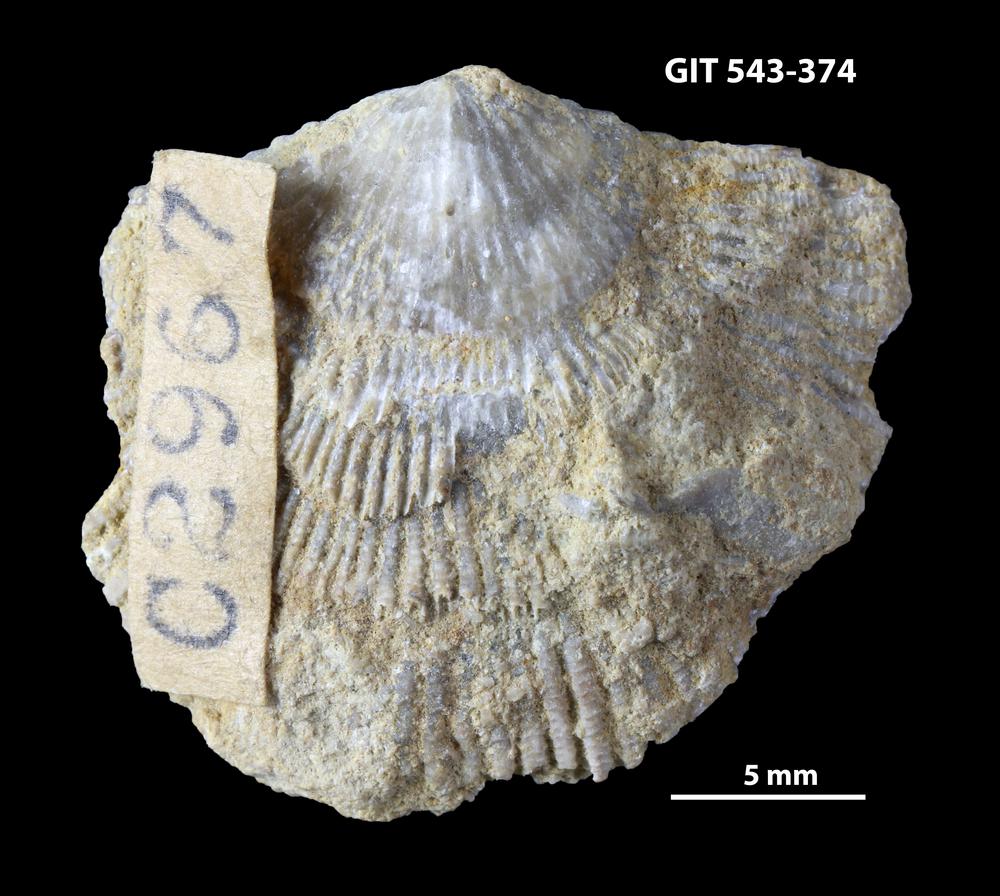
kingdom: Animalia
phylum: Brachiopoda
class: Rhynchonellata
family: Clitambonitidae
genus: Clitambonites
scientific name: Clitambonites Orthisina schmidti
